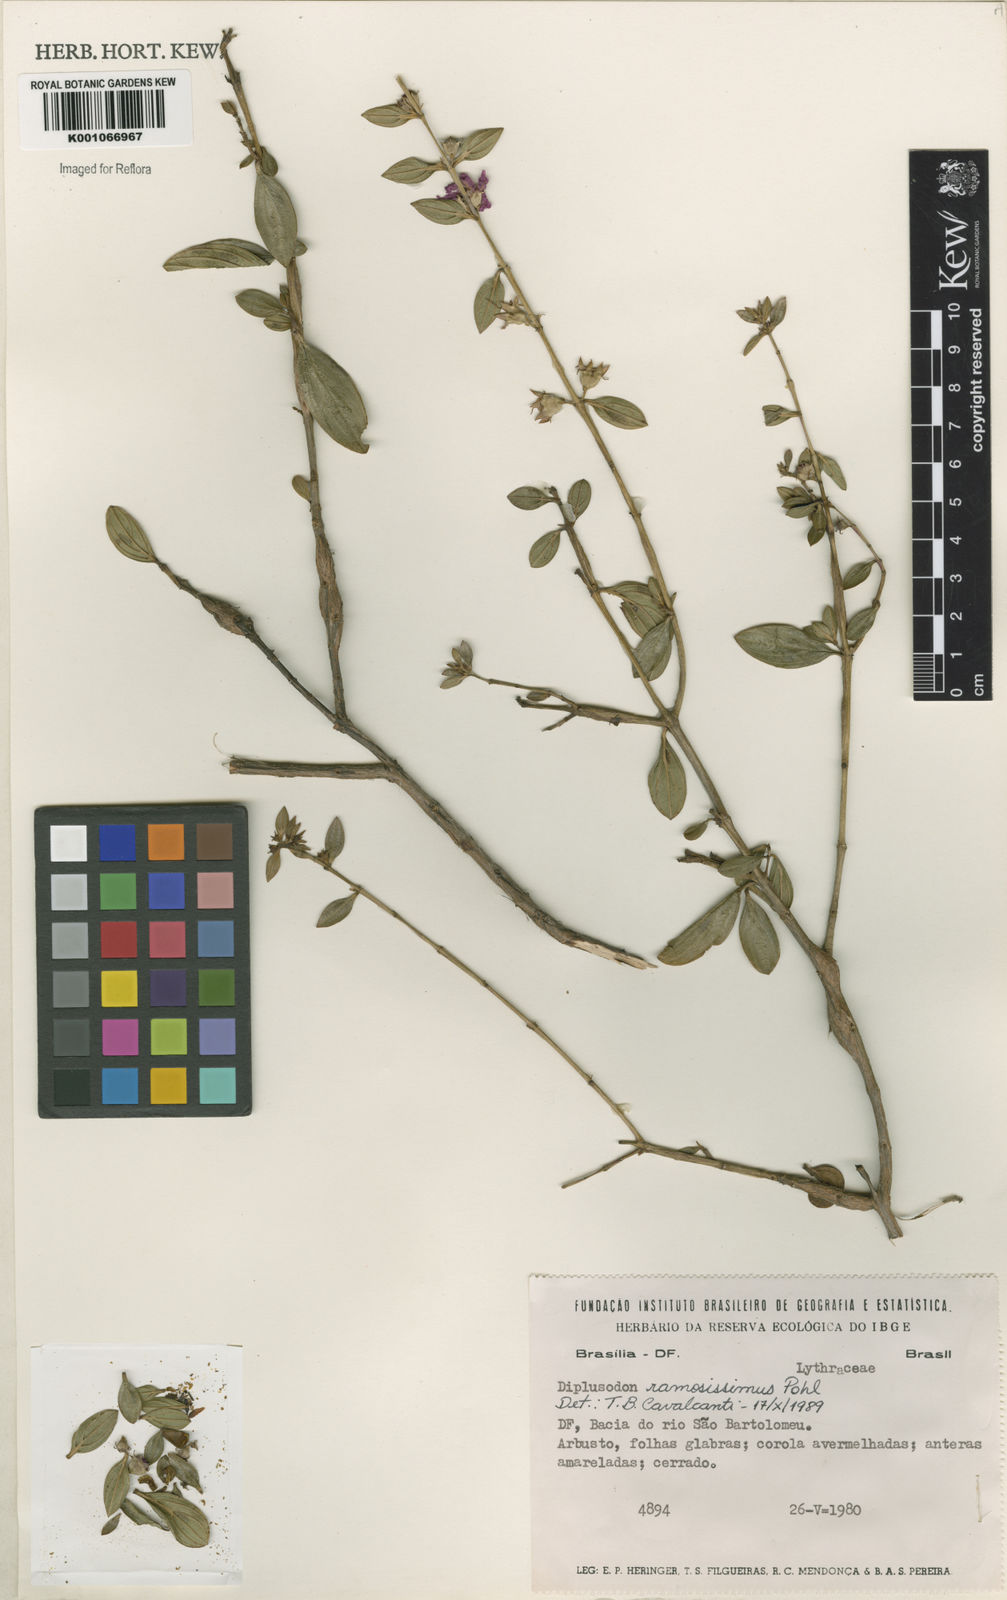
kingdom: Plantae
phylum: Tracheophyta
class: Magnoliopsida
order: Myrtales
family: Lythraceae
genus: Diplusodon
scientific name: Diplusodon ramosissimus
